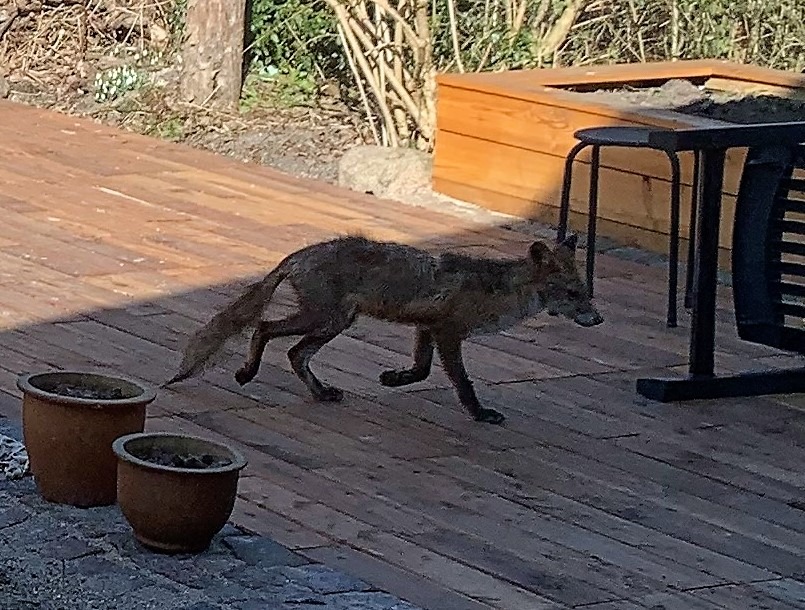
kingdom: Animalia
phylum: Chordata
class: Mammalia
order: Carnivora
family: Canidae
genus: Vulpes
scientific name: Vulpes vulpes
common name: Ræv
